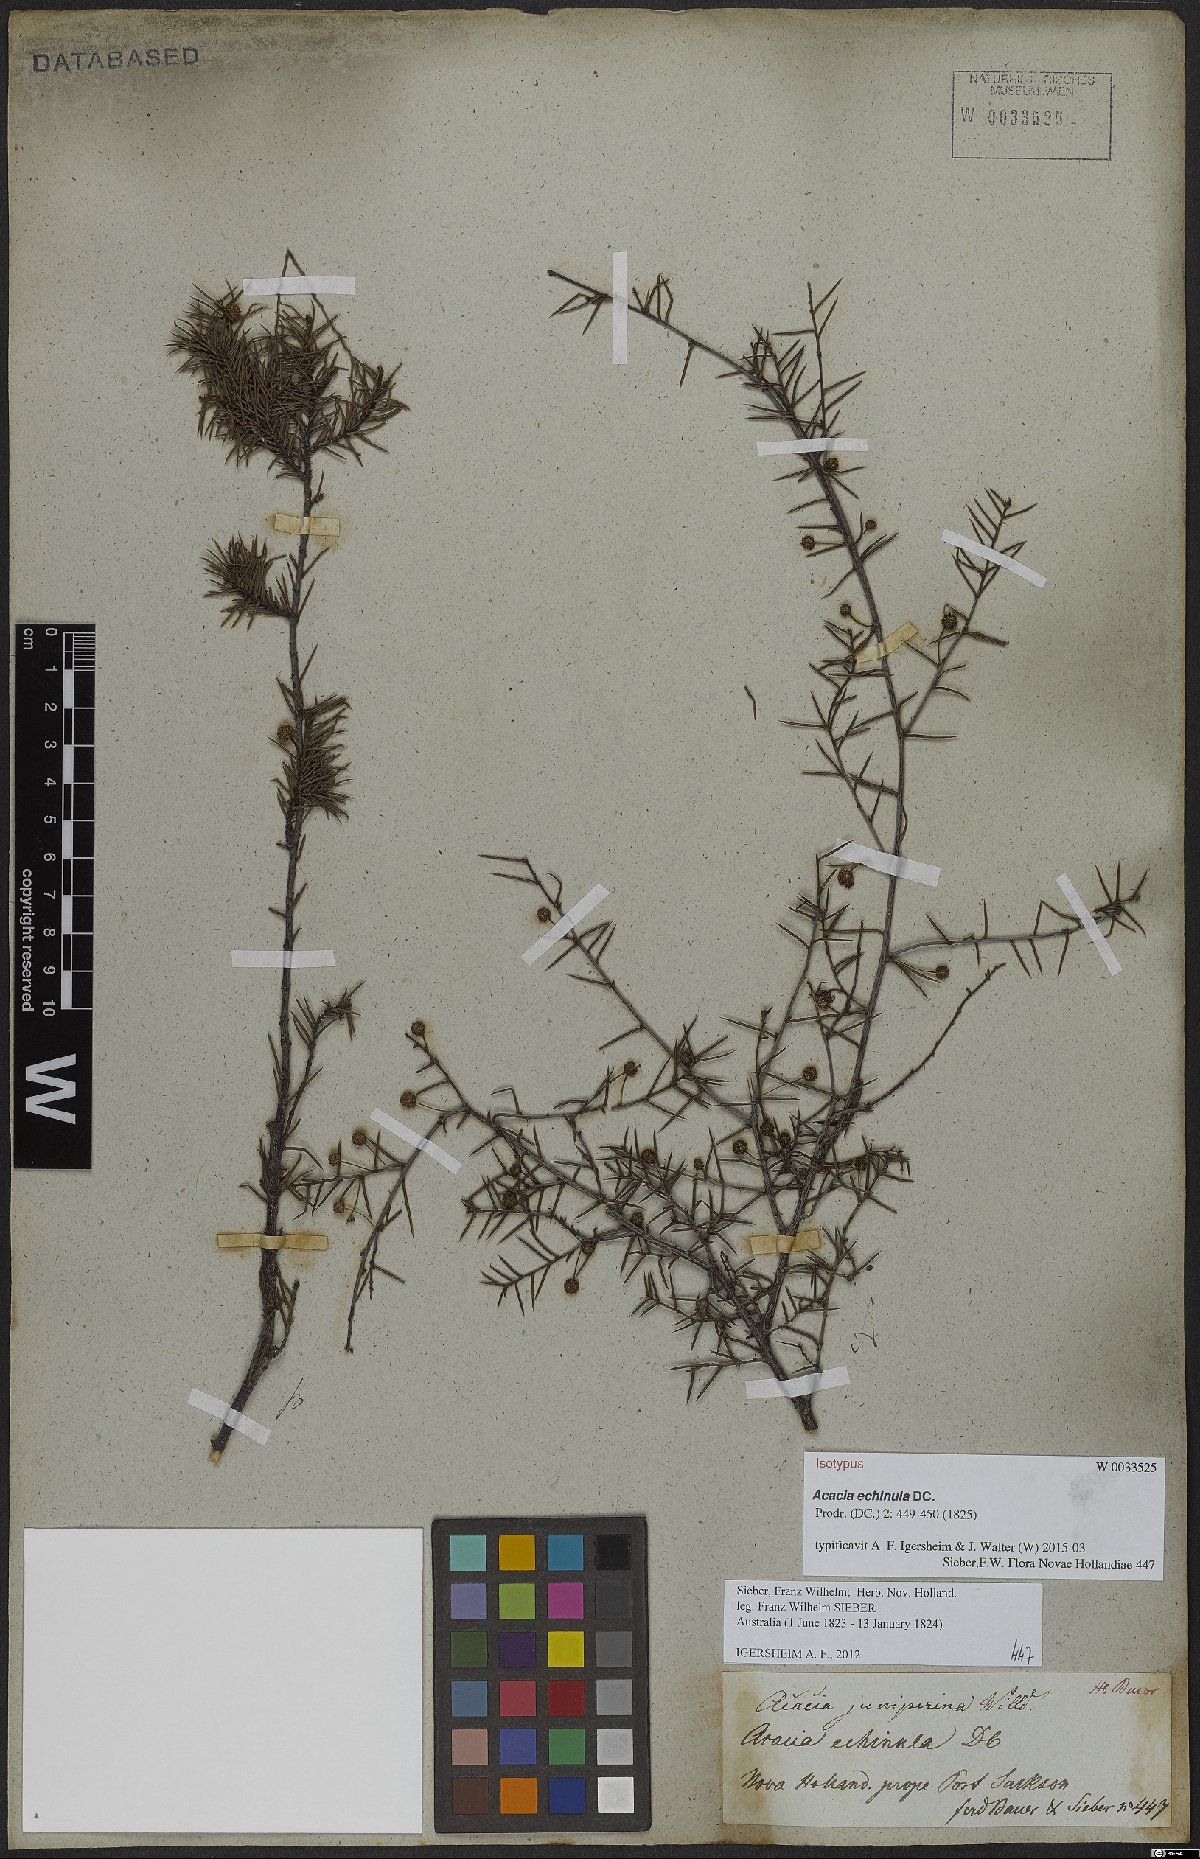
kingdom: Plantae
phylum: Tracheophyta
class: Magnoliopsida
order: Fabales
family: Fabaceae
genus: Acacia
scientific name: Acacia echinula
